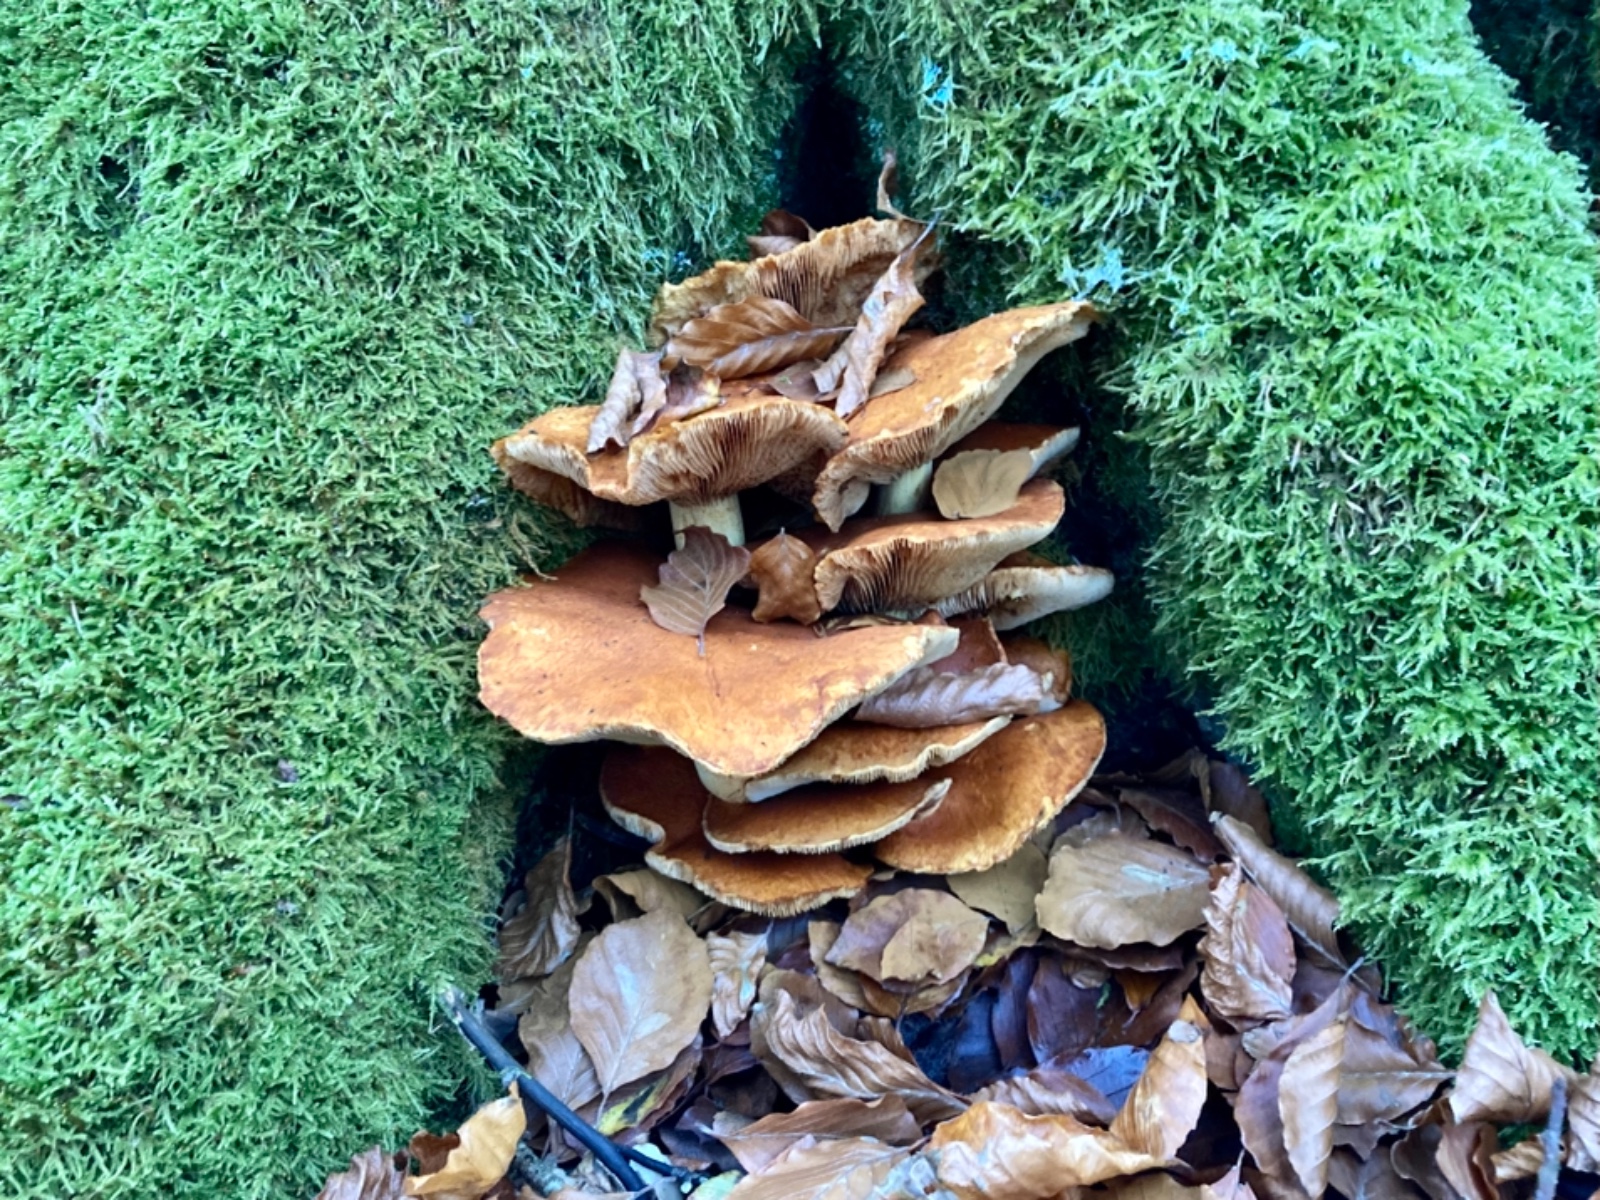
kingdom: Fungi
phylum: Basidiomycota
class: Agaricomycetes
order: Agaricales
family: Hymenogastraceae
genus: Gymnopilus
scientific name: Gymnopilus spectabilis
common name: fibret flammehat
